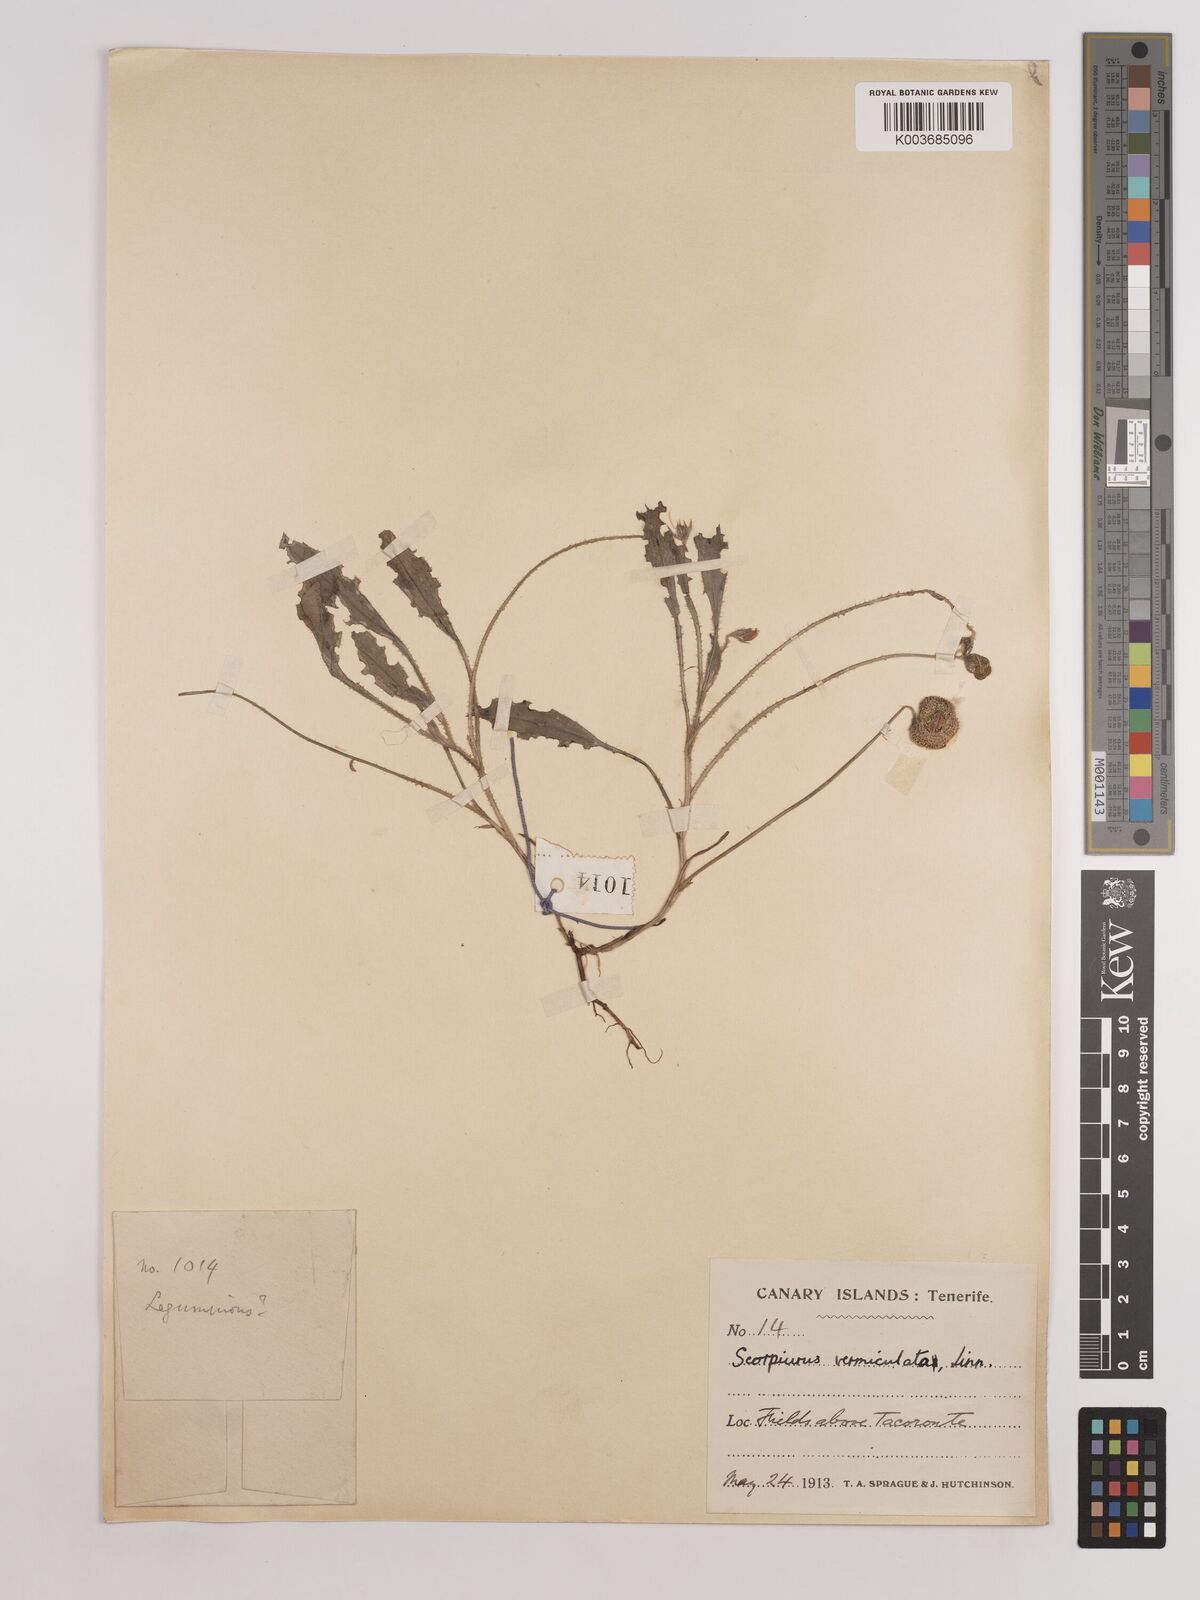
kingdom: Plantae
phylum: Tracheophyta
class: Magnoliopsida
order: Fabales
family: Fabaceae
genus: Scorpiurus
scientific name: Scorpiurus vermiculatus
